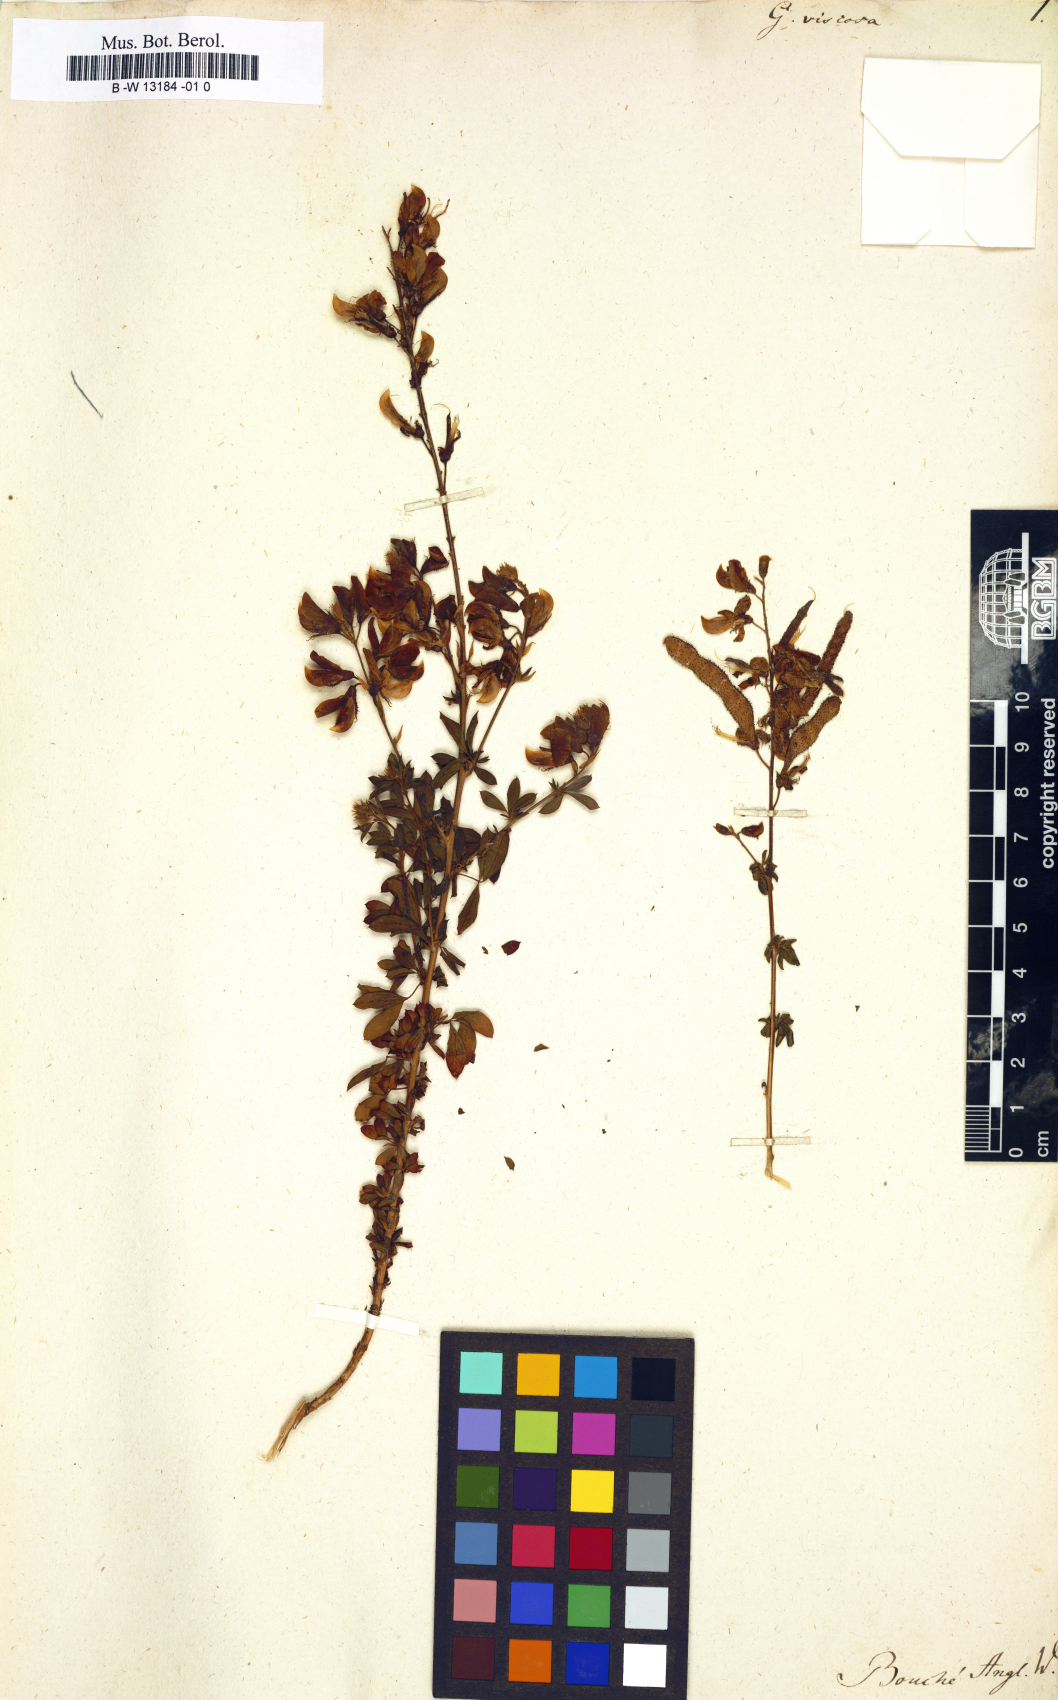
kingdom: Plantae
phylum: Tracheophyta
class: Magnoliopsida
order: Fabales
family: Fabaceae
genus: Adenocarpus
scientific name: Adenocarpus viscosus
